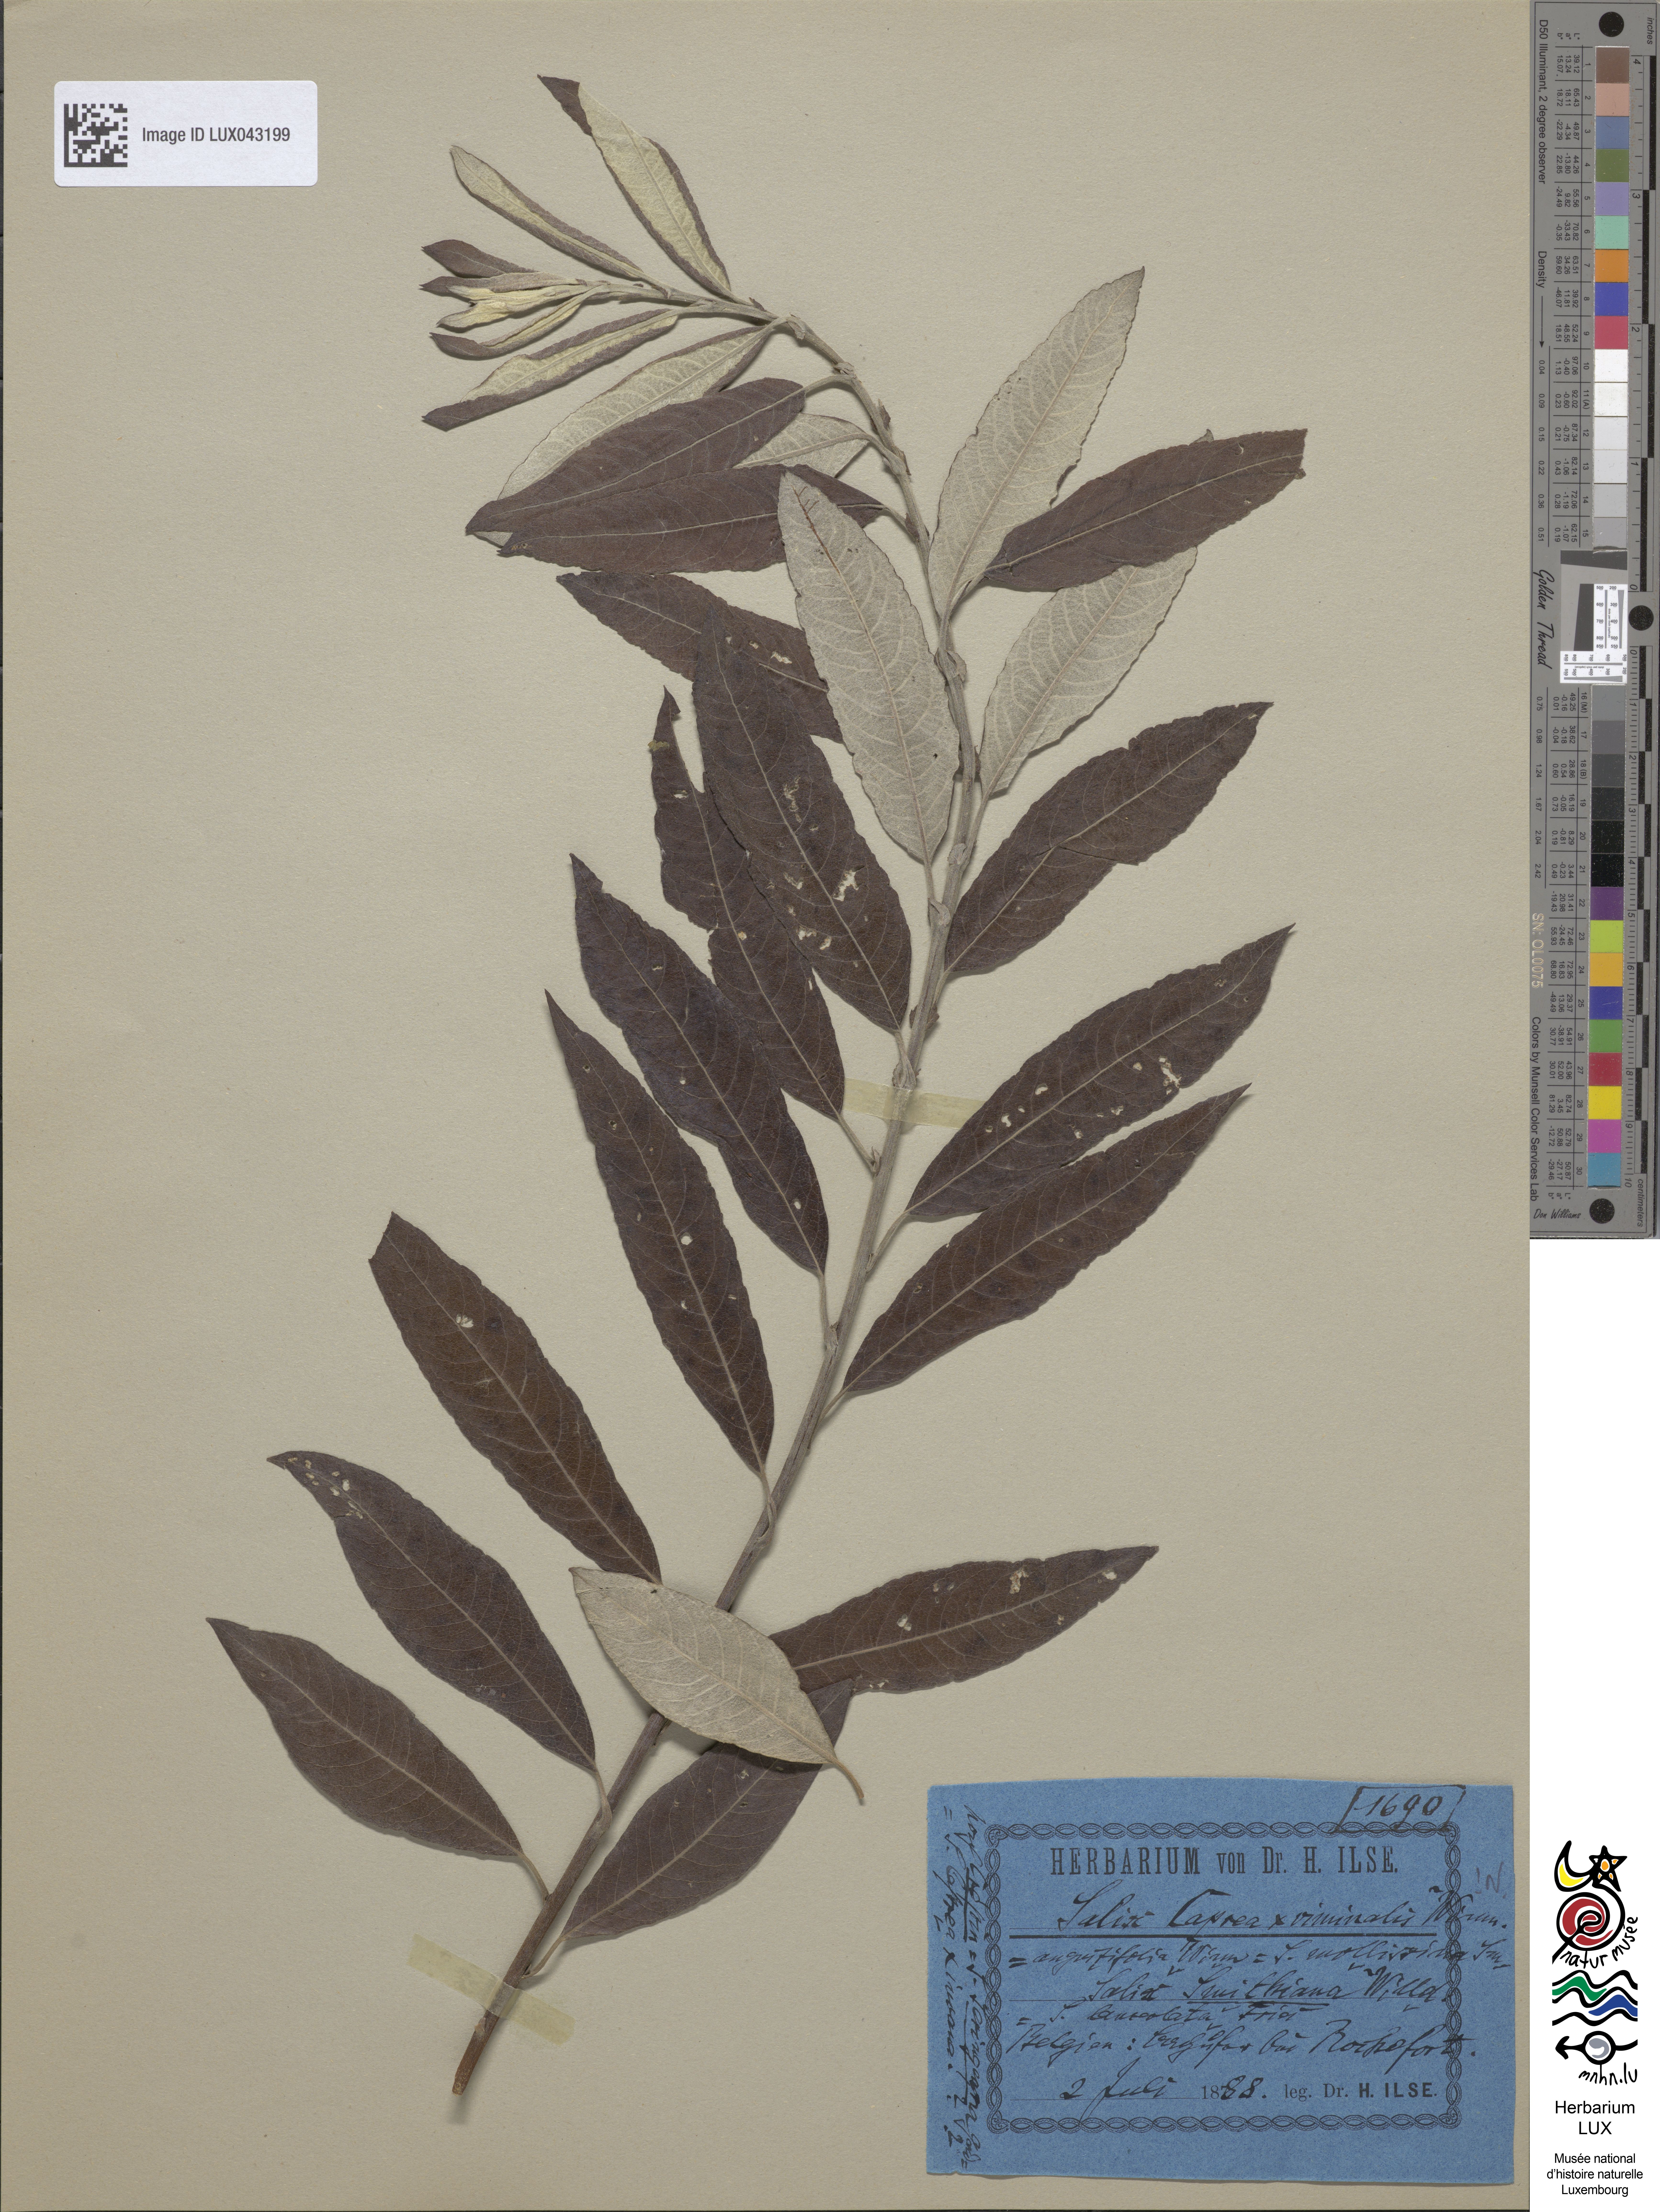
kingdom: Plantae
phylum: Tracheophyta
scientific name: Tracheophyta
